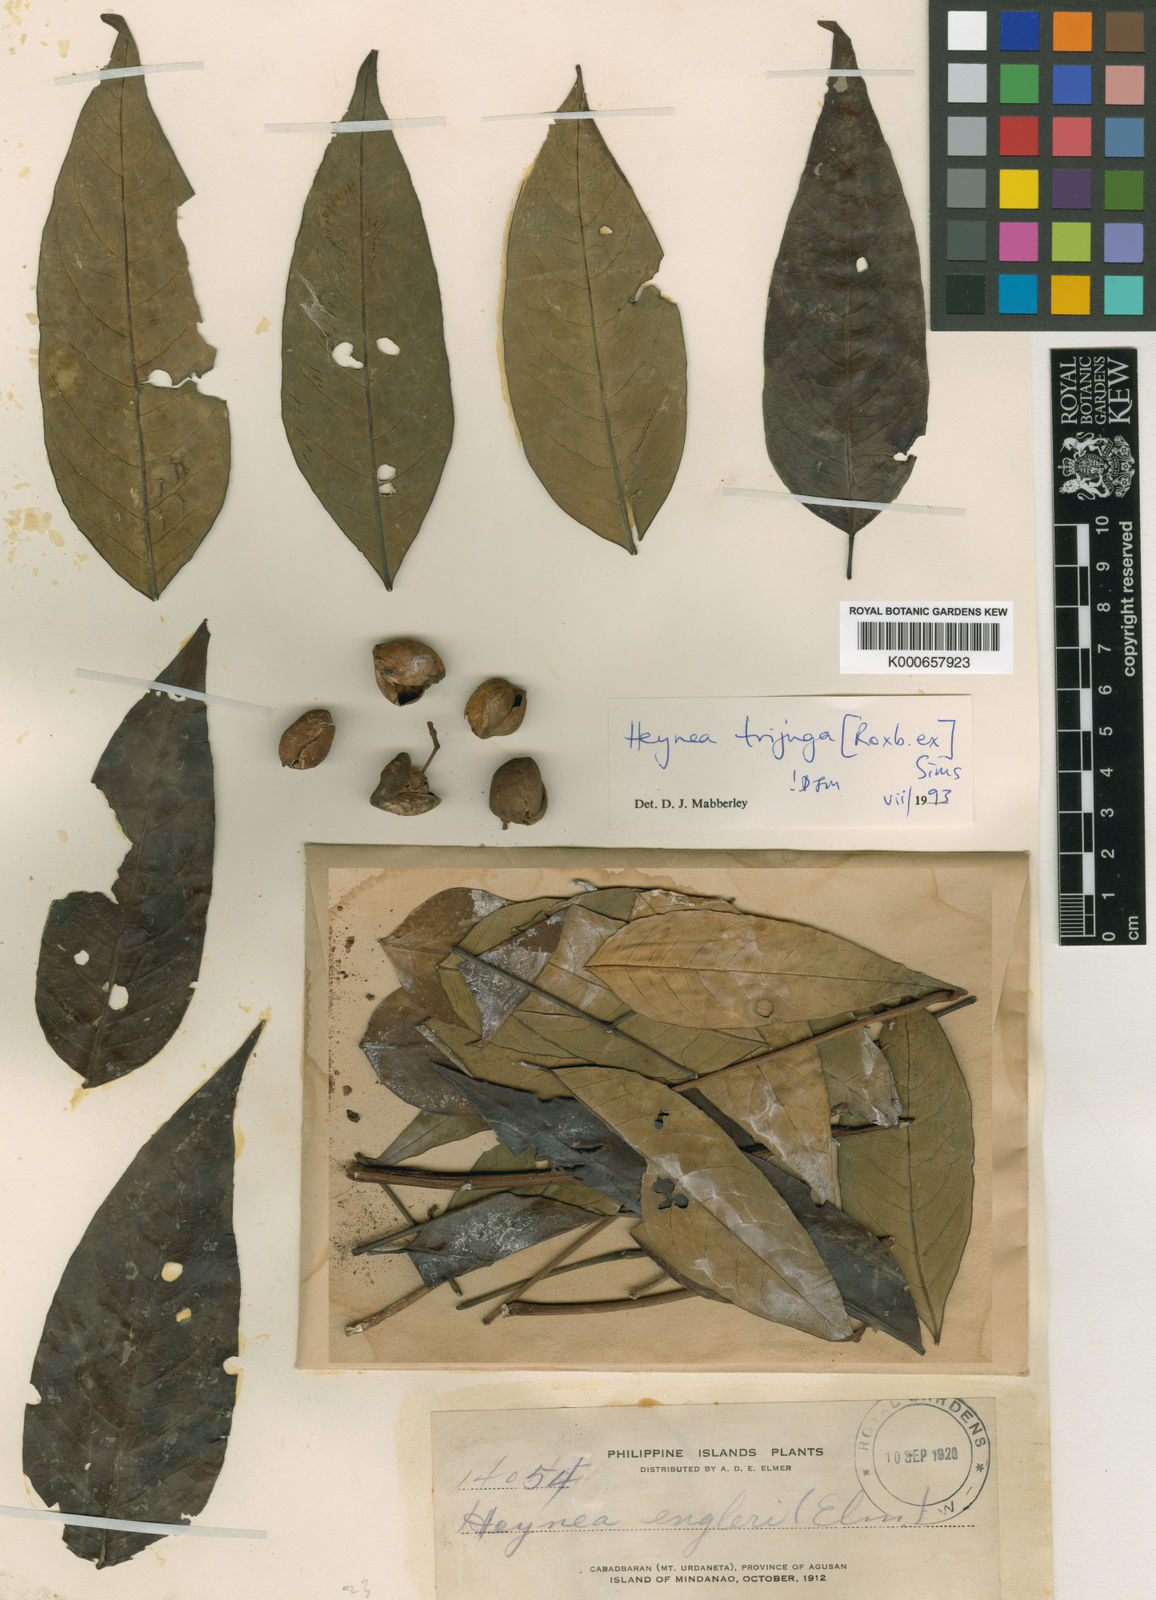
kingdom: Plantae
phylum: Tracheophyta
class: Magnoliopsida
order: Sapindales
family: Meliaceae
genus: Heynea
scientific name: Heynea trijuga
